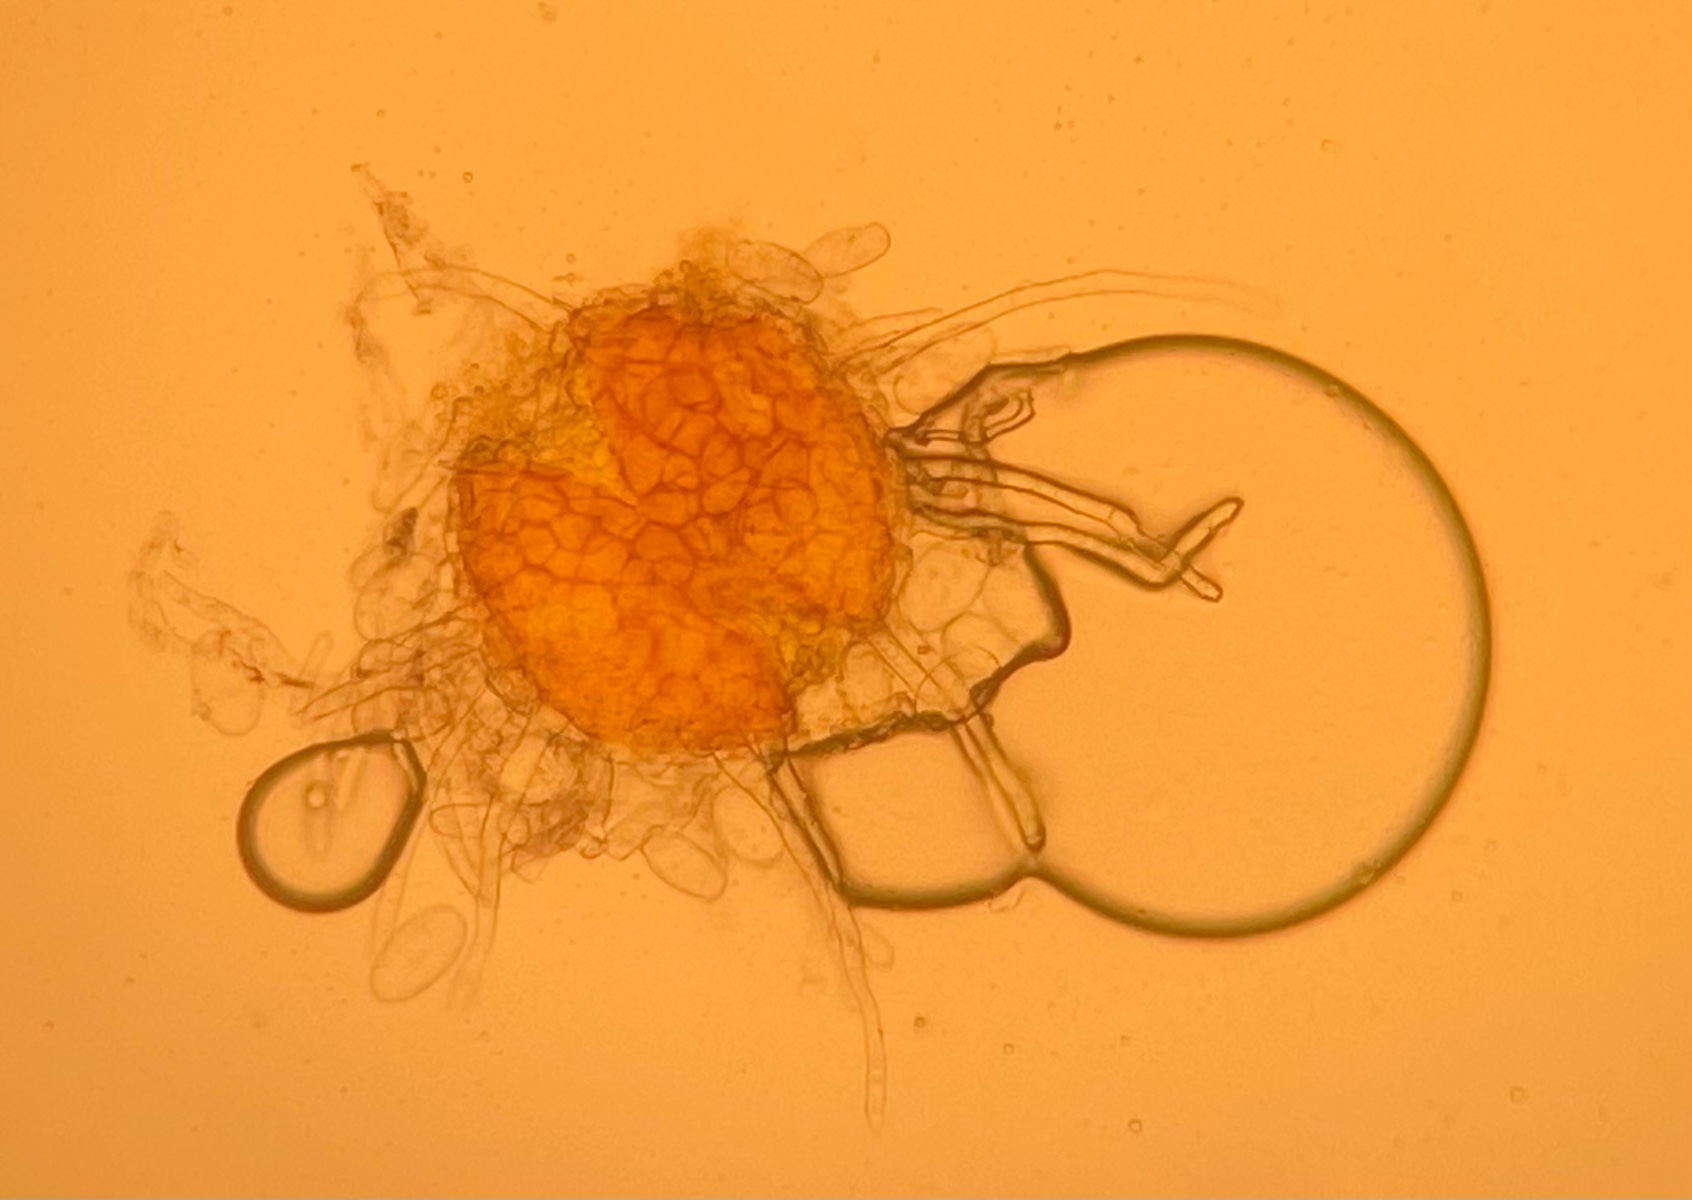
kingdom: Fungi
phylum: Ascomycota
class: Leotiomycetes
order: Helotiales
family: Erysiphaceae
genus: Erysiphe
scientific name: Erysiphe pisi
